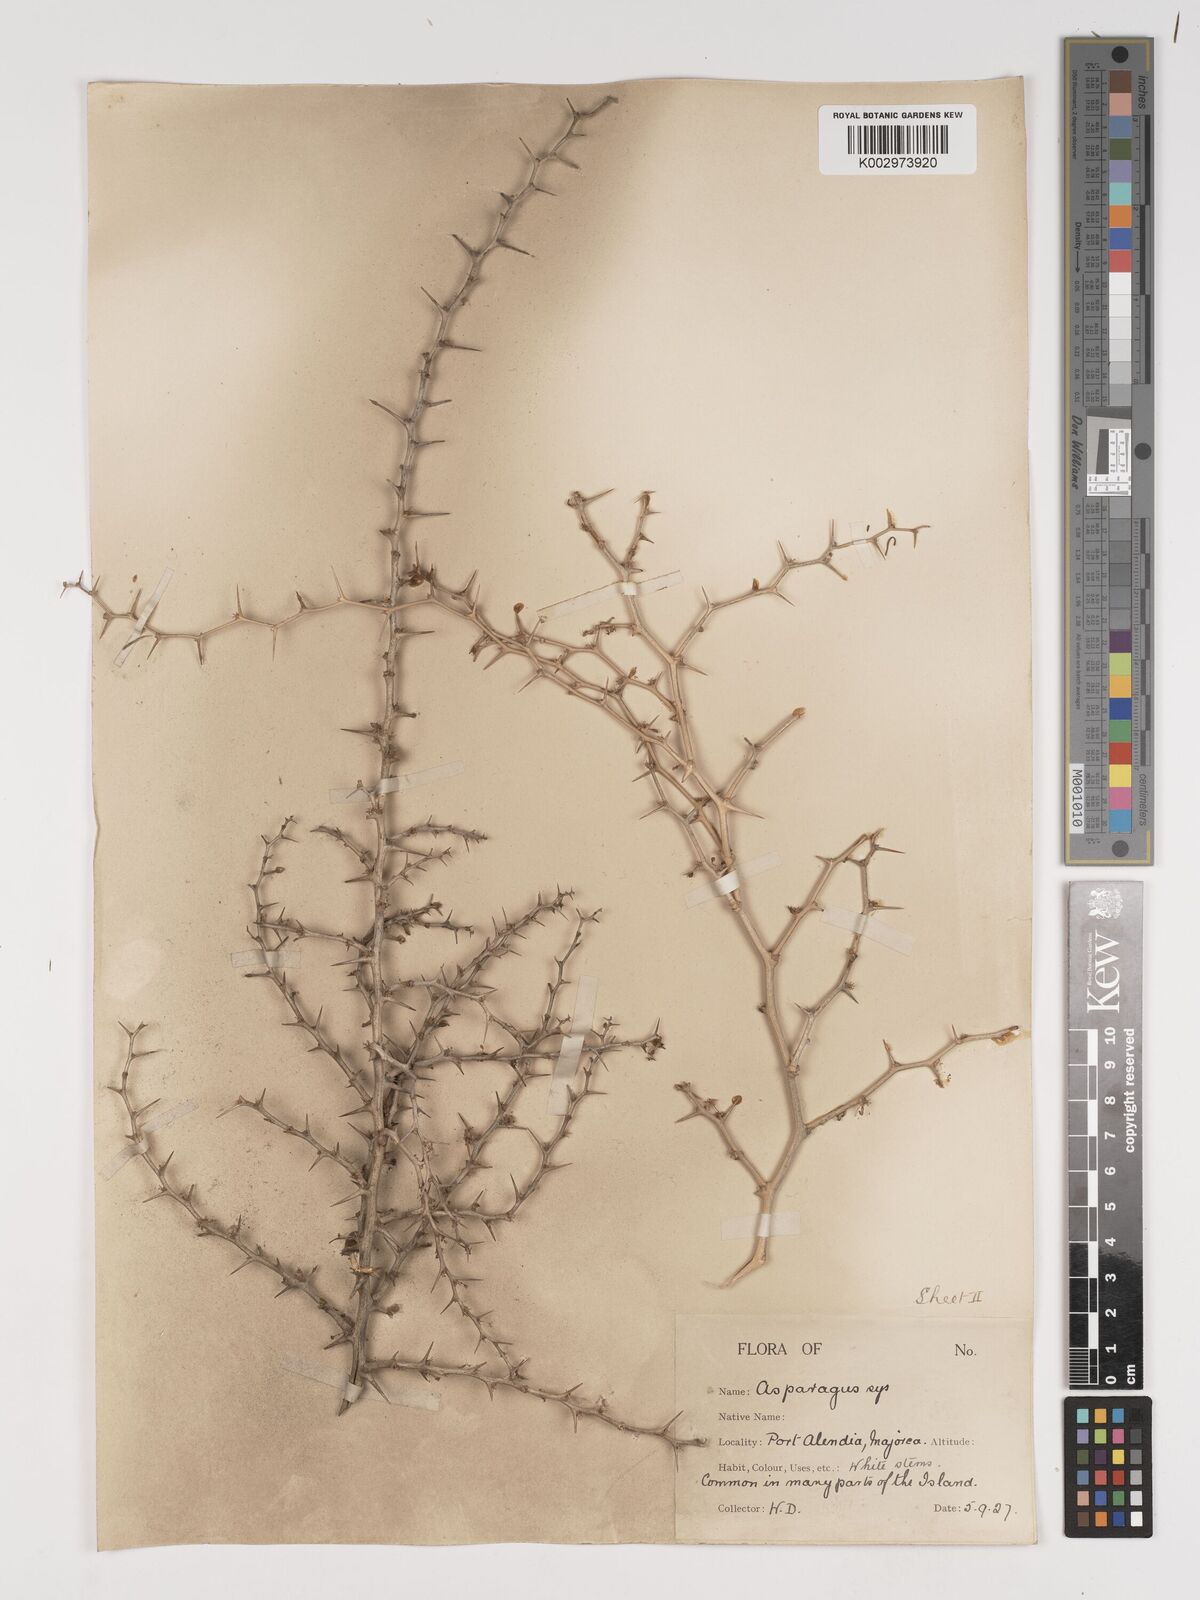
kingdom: Plantae
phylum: Tracheophyta
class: Liliopsida
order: Asparagales
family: Asparagaceae
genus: Asparagus
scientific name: Asparagus albus
